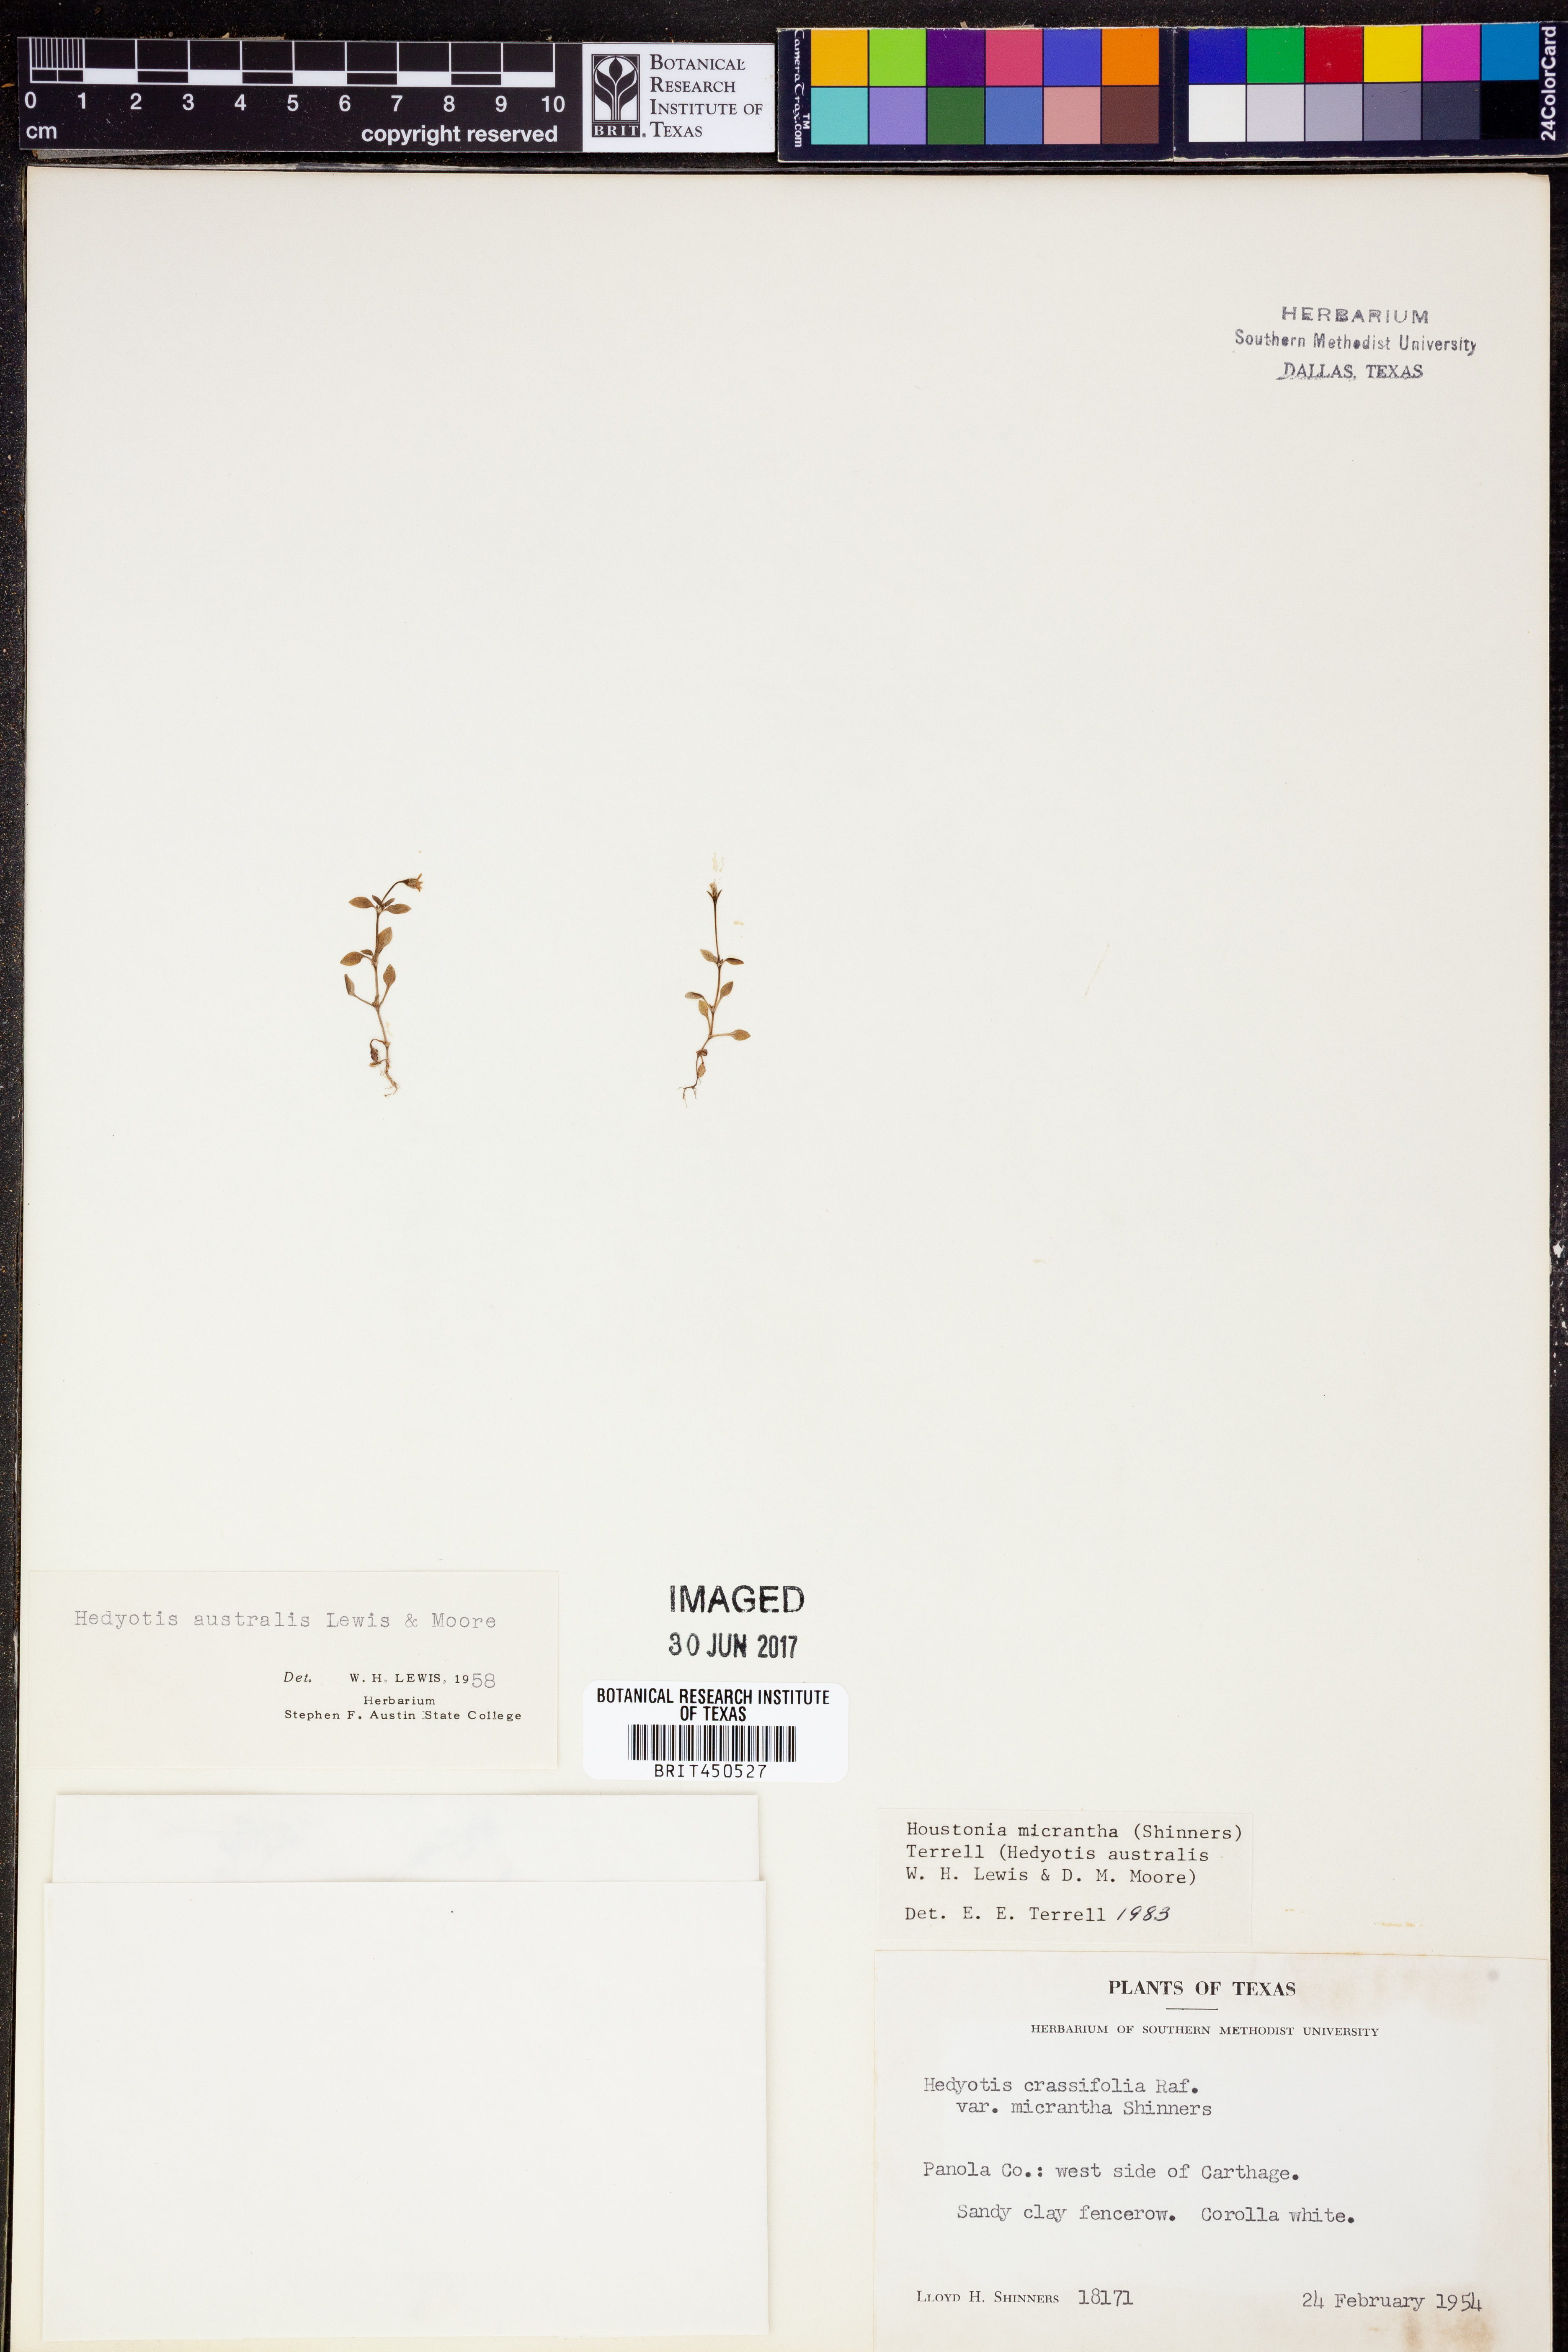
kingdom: Plantae
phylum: Tracheophyta
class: Magnoliopsida
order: Gentianales
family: Rubiaceae
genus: Houstonia
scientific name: Houstonia micrantha
